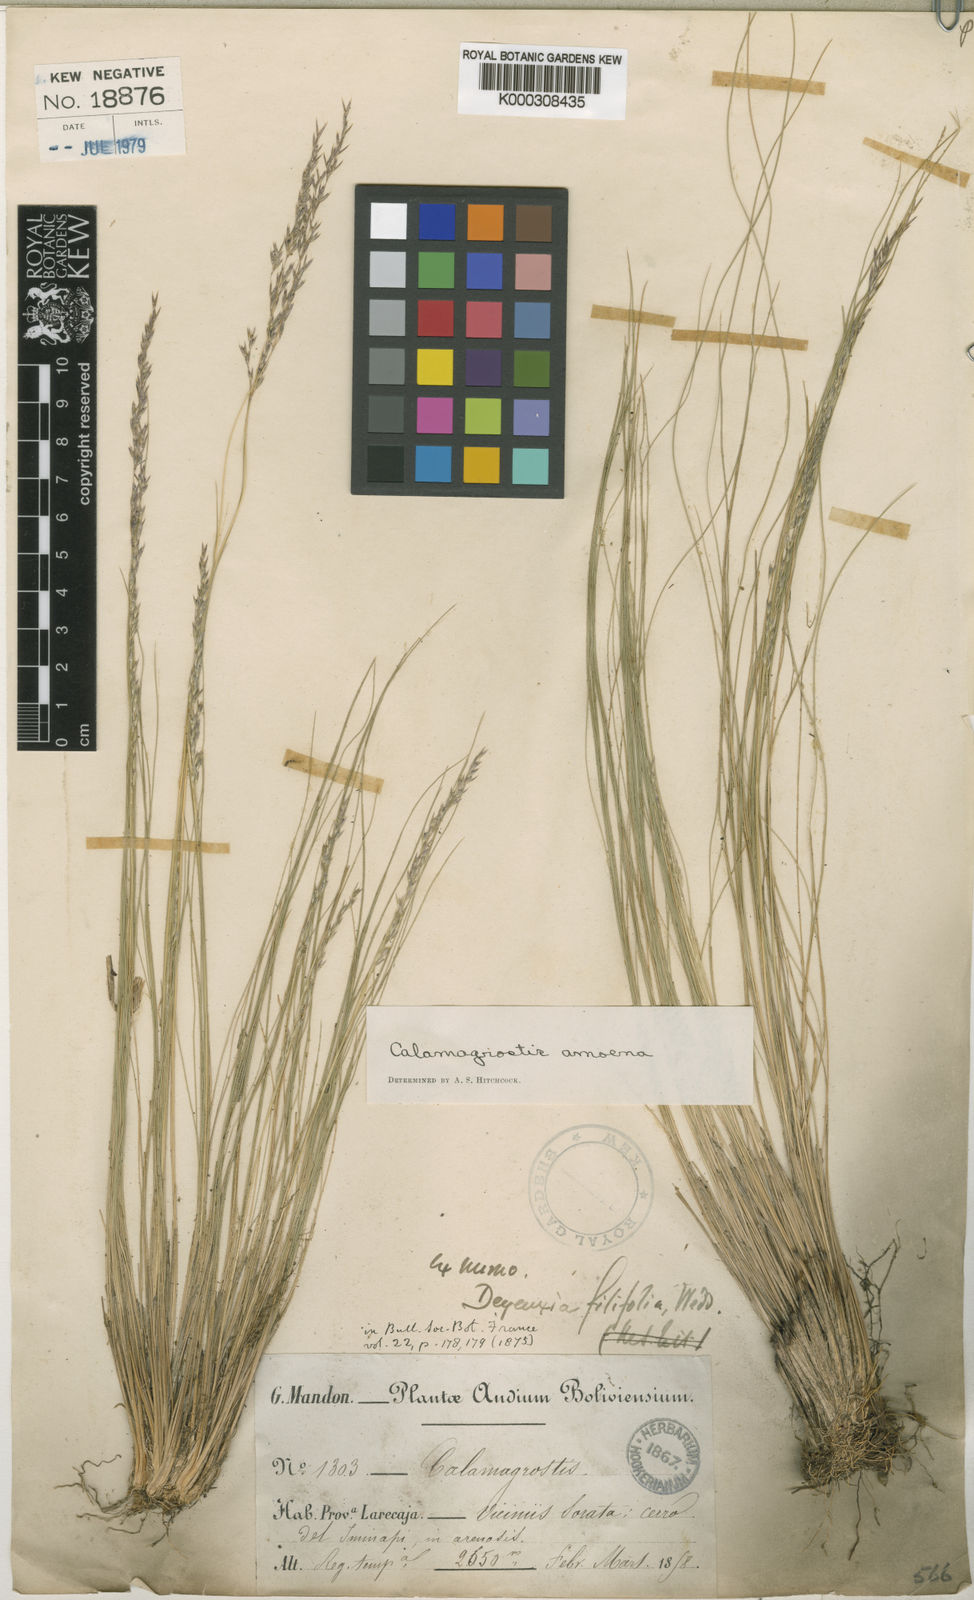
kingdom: Plantae
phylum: Tracheophyta
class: Liliopsida
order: Poales
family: Poaceae
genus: Cinnagrostis
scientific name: Cinnagrostis filifolia
